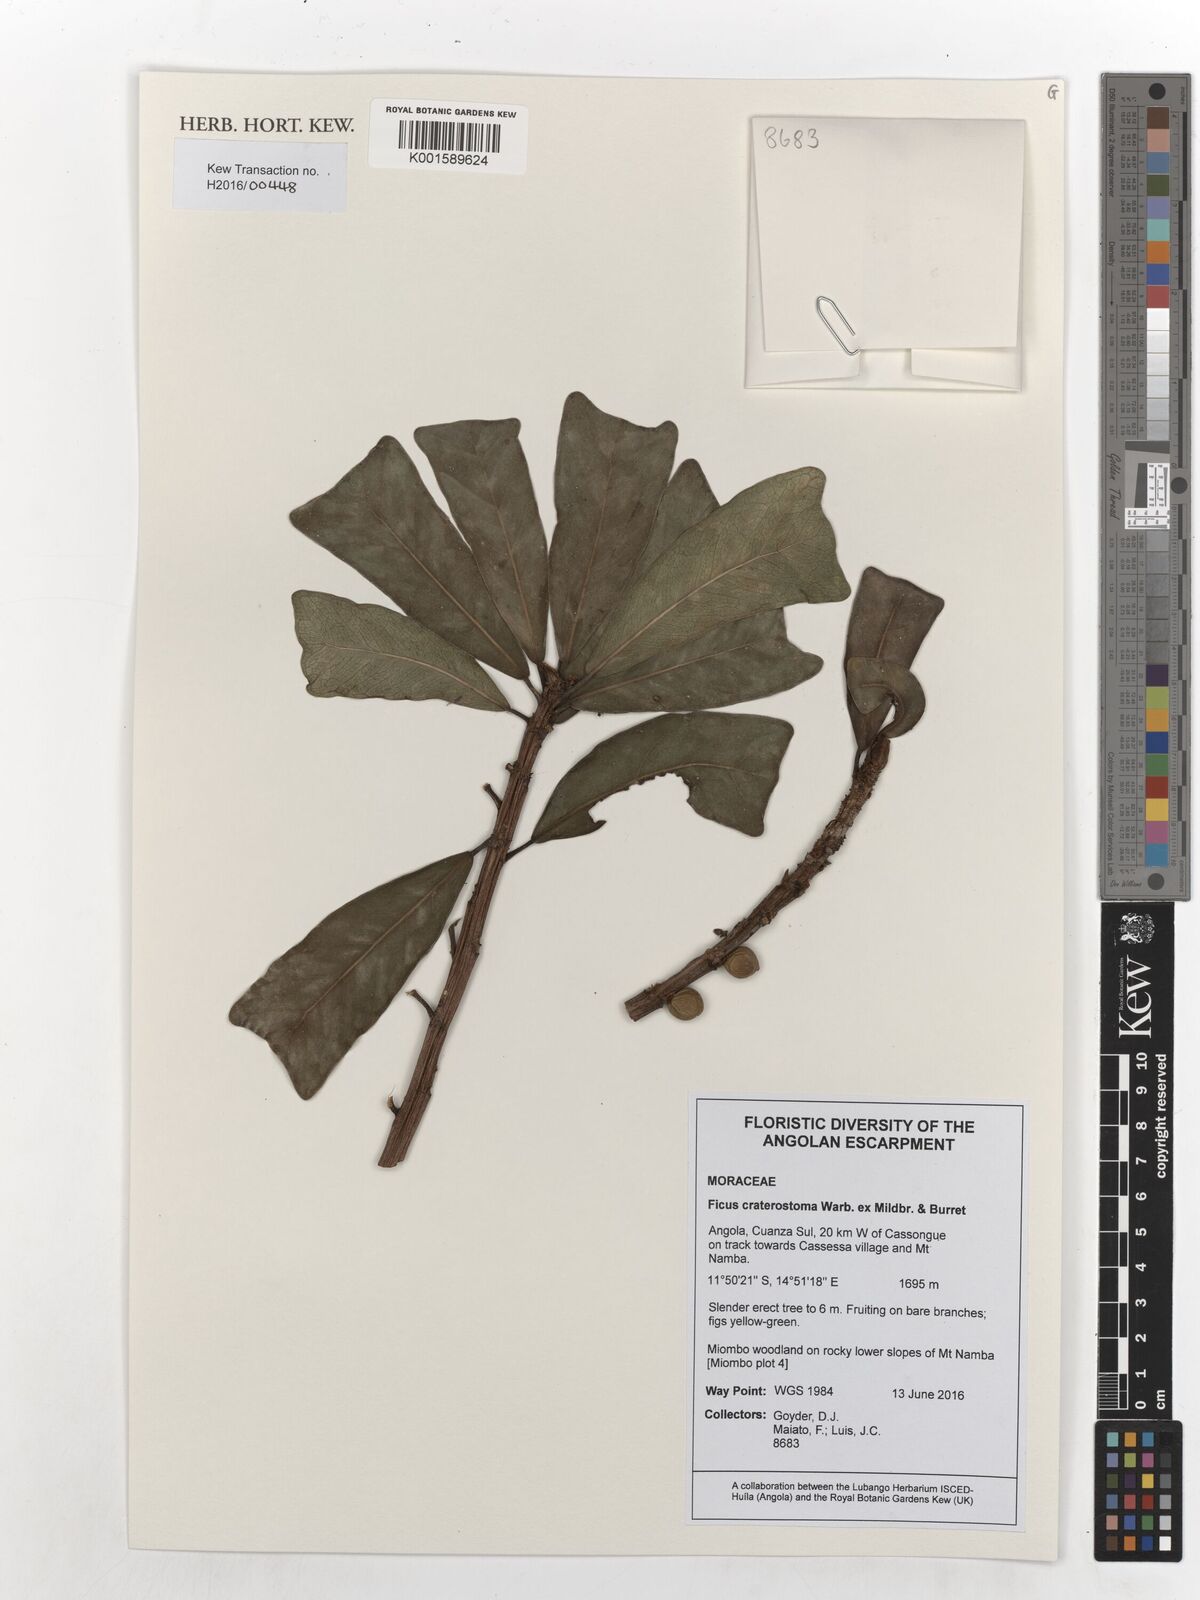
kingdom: Plantae
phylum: Tracheophyta
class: Magnoliopsida
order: Rosales
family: Moraceae
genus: Ficus
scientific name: Ficus craterostoma
